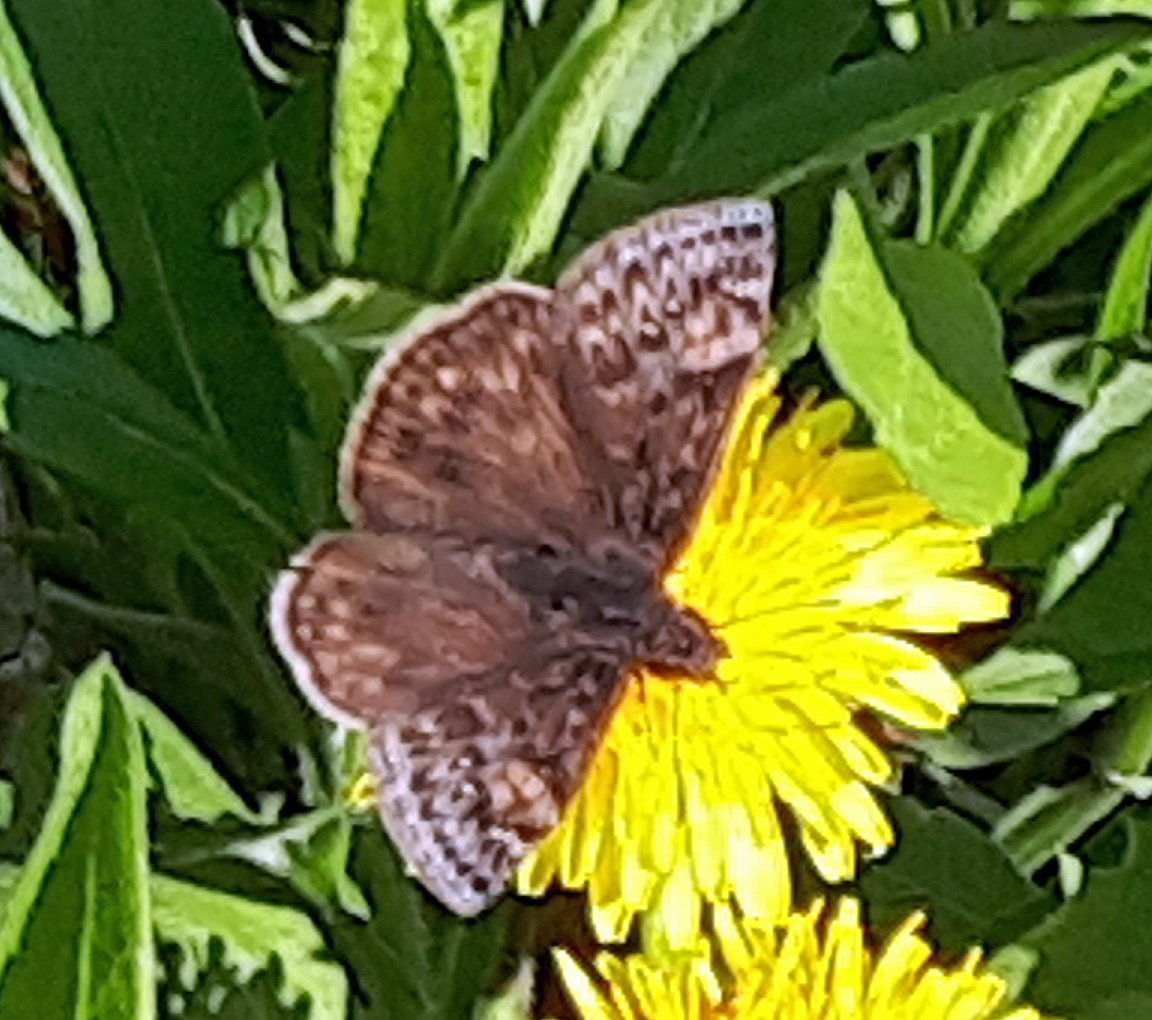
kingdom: Animalia
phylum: Arthropoda
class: Insecta
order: Lepidoptera
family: Hesperiidae
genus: Gesta
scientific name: Gesta
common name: Juvenal's Duskywing
